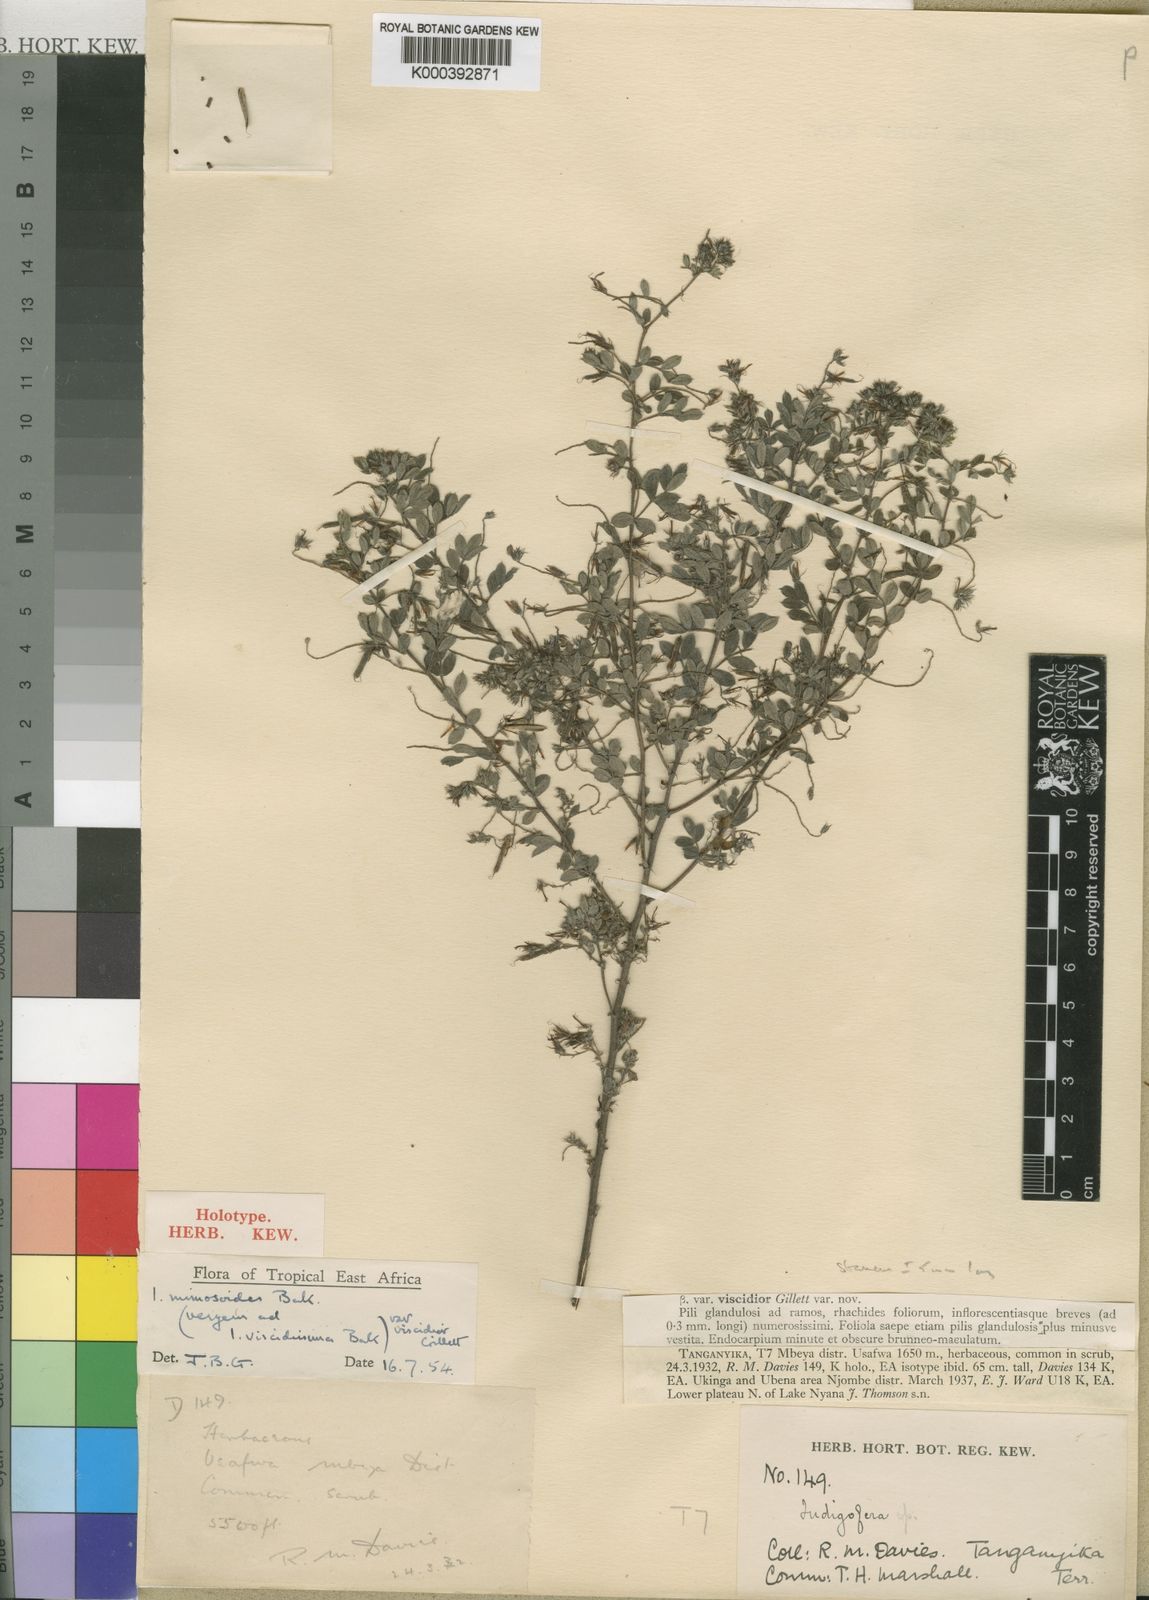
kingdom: Plantae
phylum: Tracheophyta
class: Magnoliopsida
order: Fabales
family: Fabaceae
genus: Indigofera
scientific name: Indigofera patula
